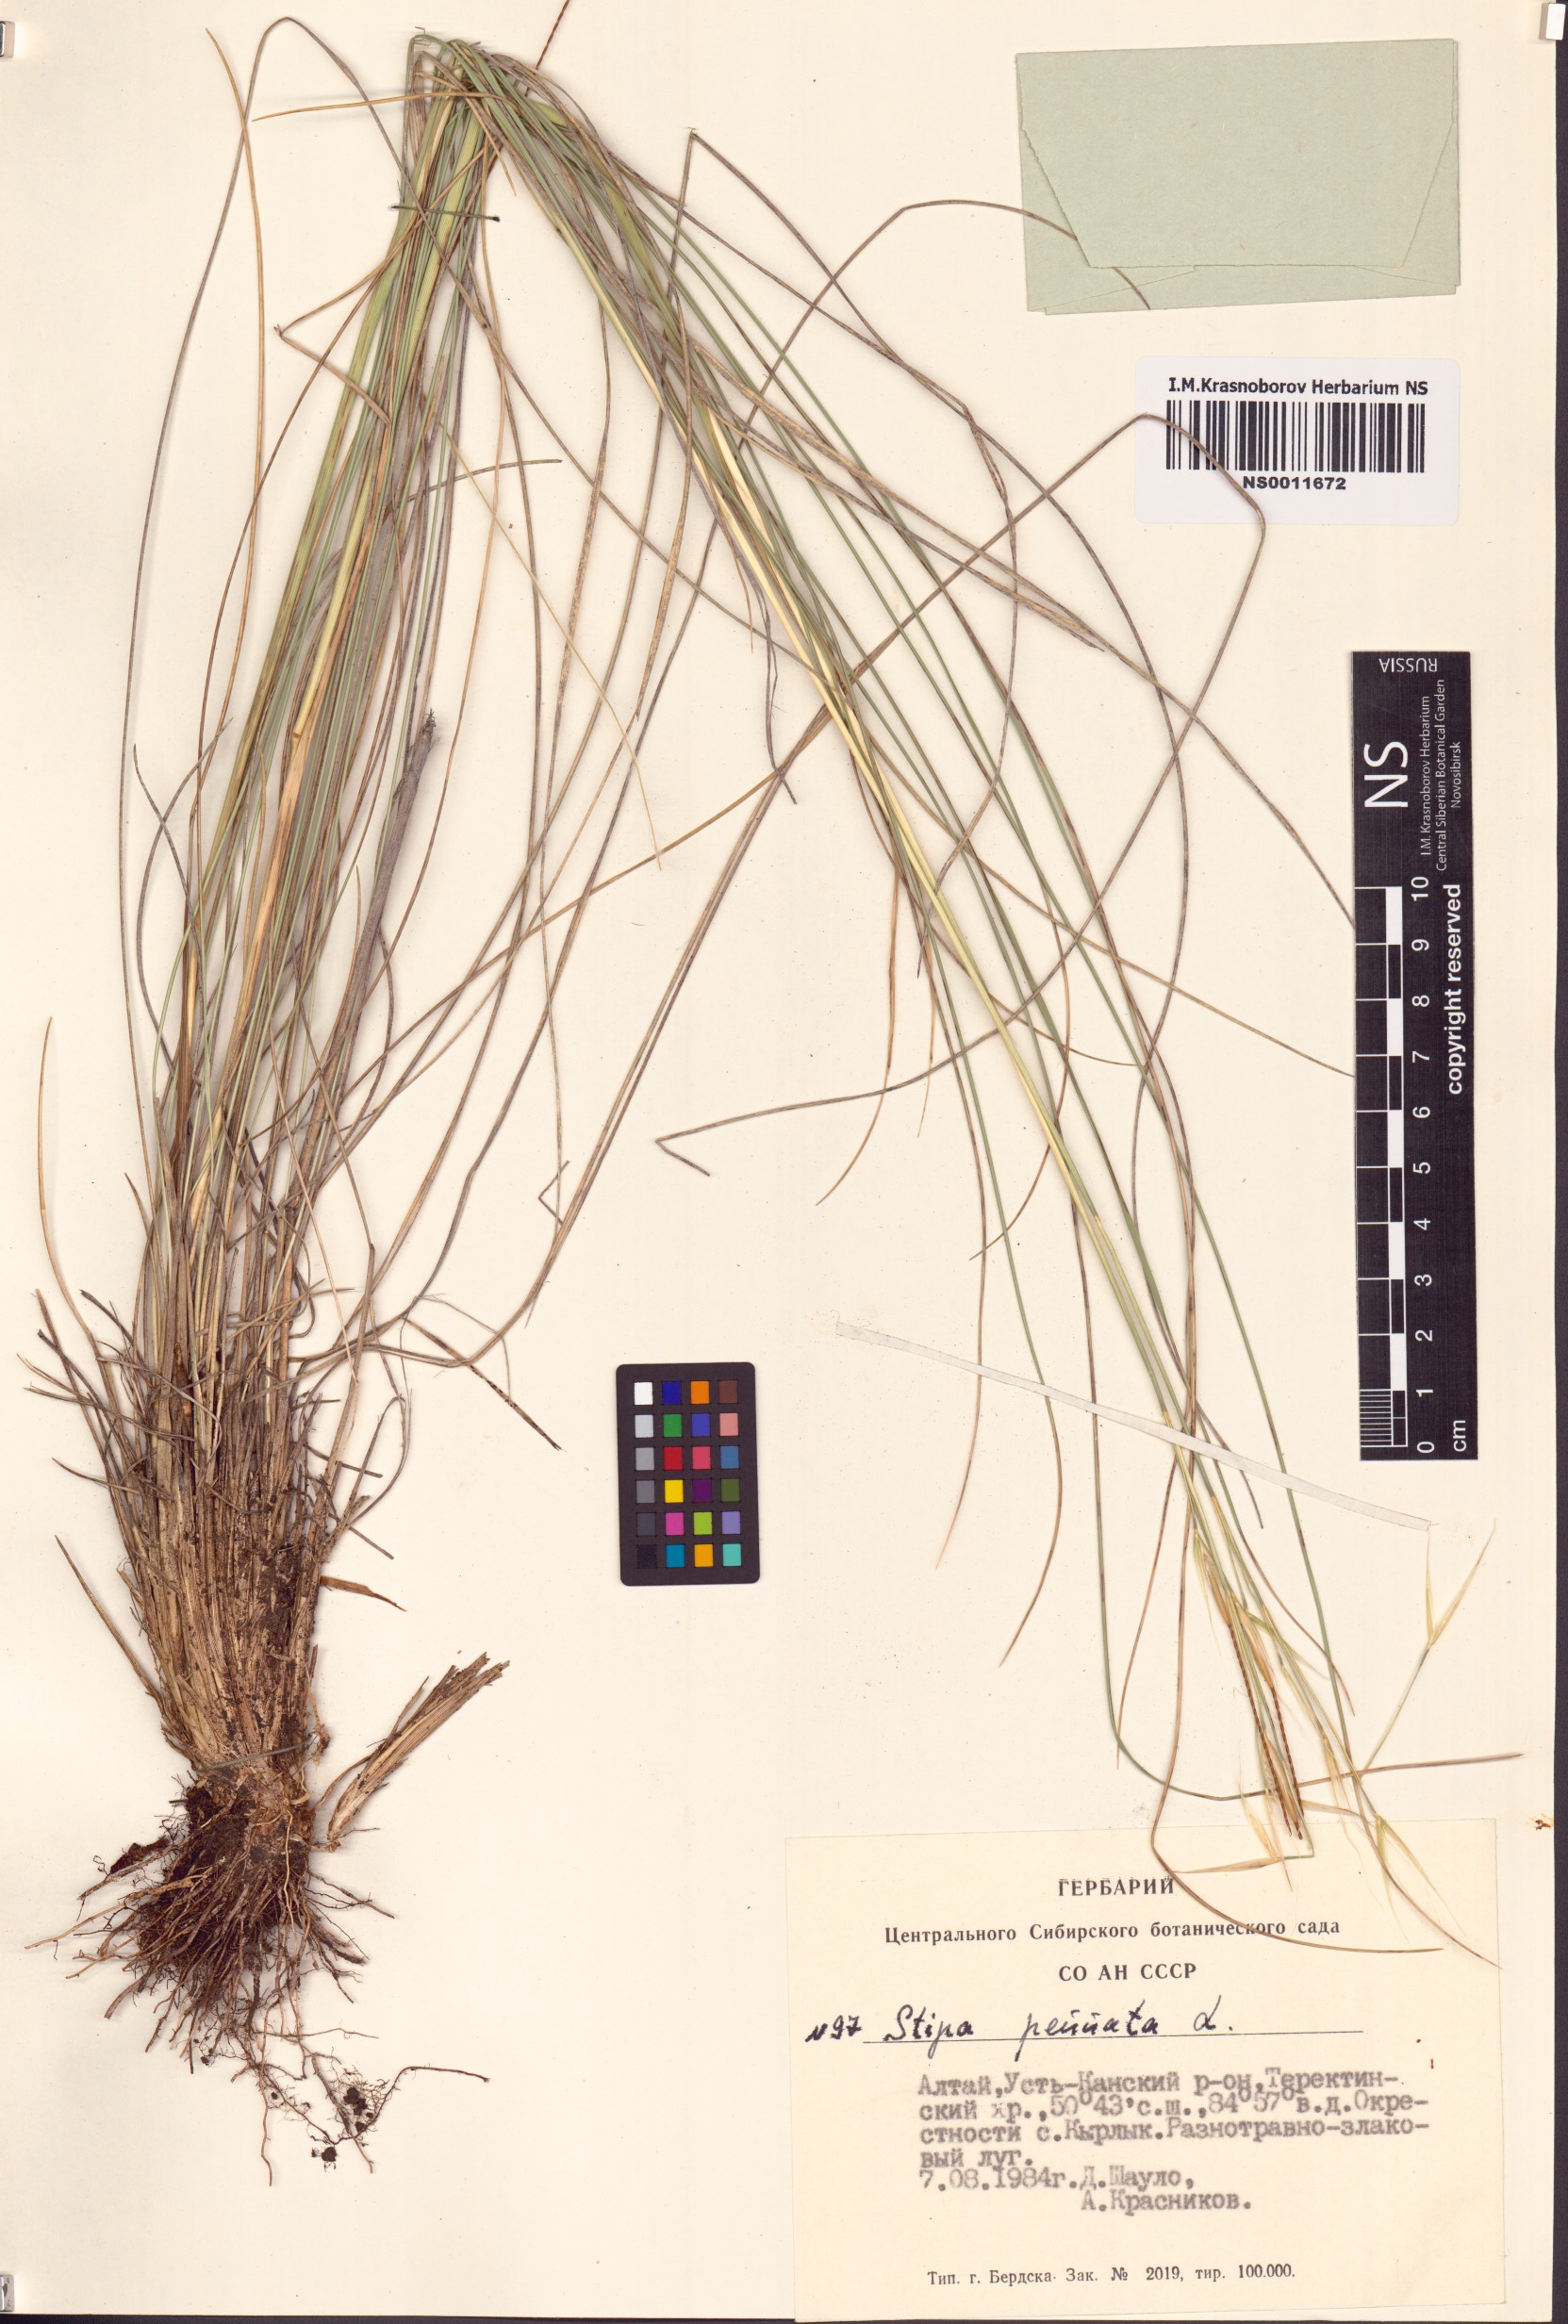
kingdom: Plantae
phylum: Tracheophyta
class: Liliopsida
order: Poales
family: Poaceae
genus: Stipa
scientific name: Stipa pennata
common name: European feather grass
